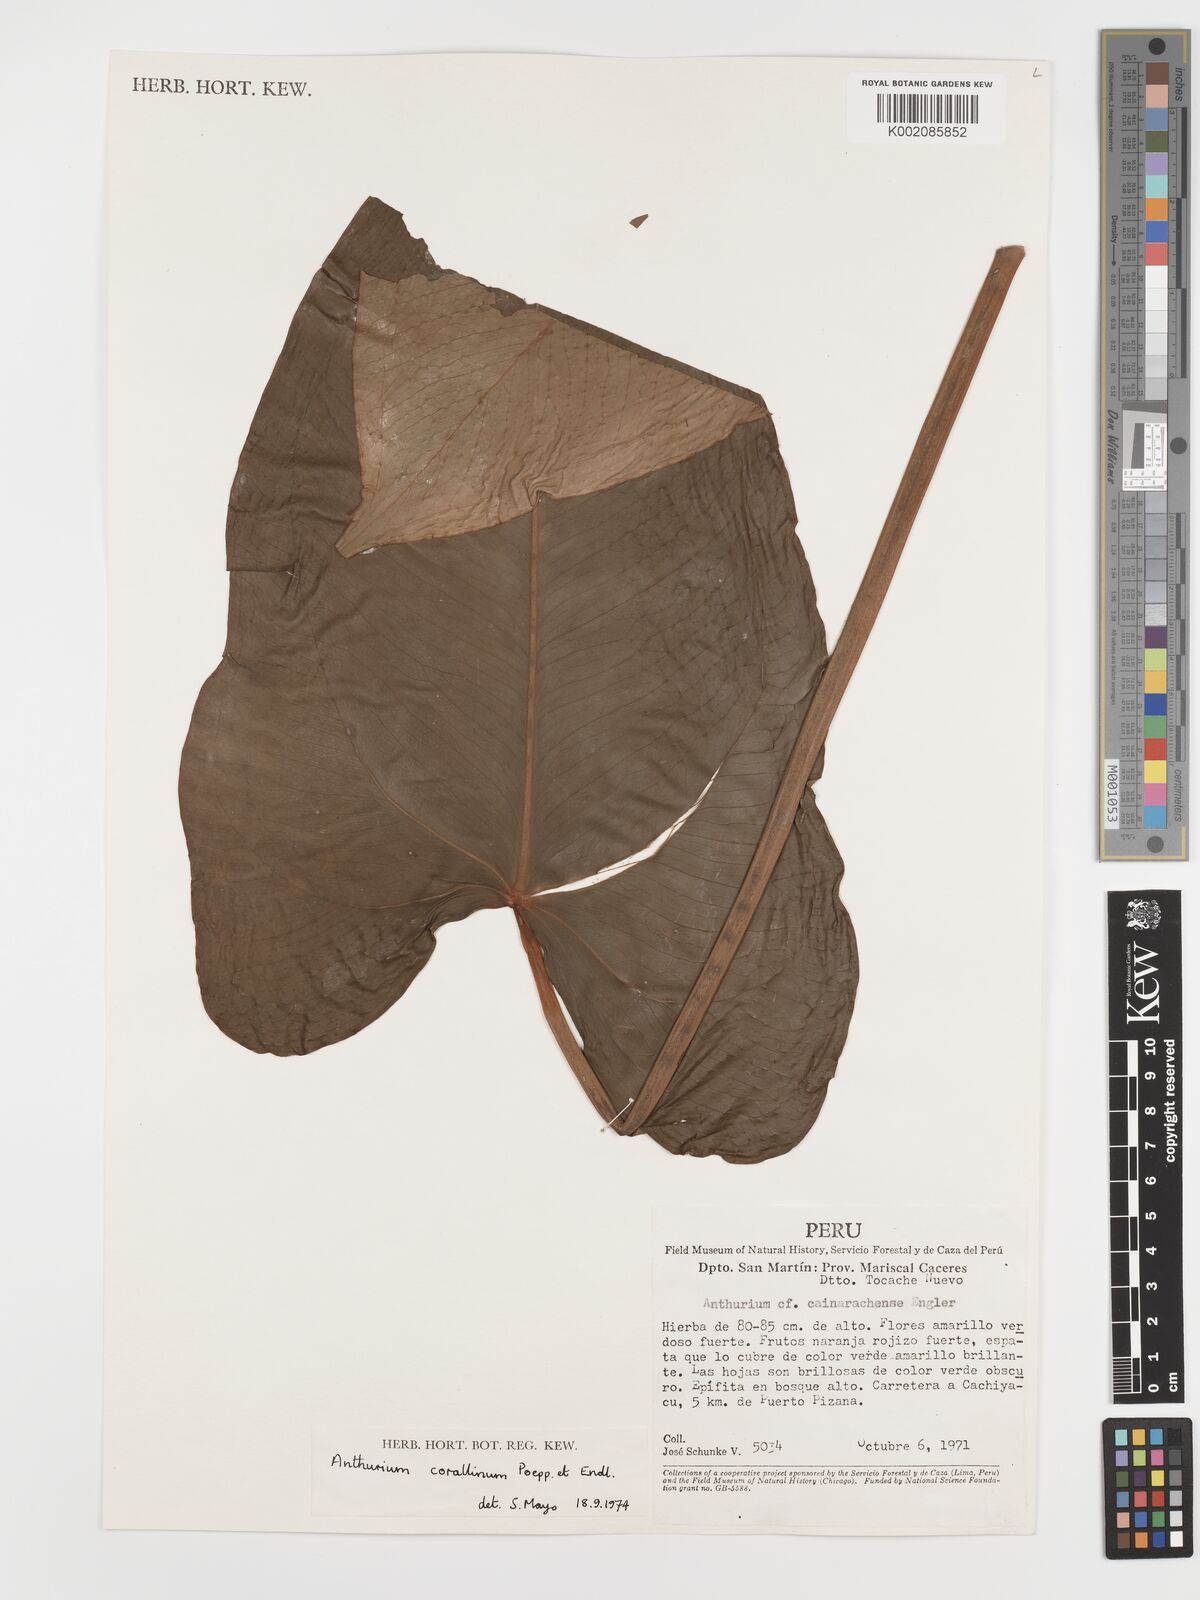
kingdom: Plantae
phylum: Tracheophyta
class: Liliopsida
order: Alismatales
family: Araceae
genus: Anthurium
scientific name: Anthurium corallinum
